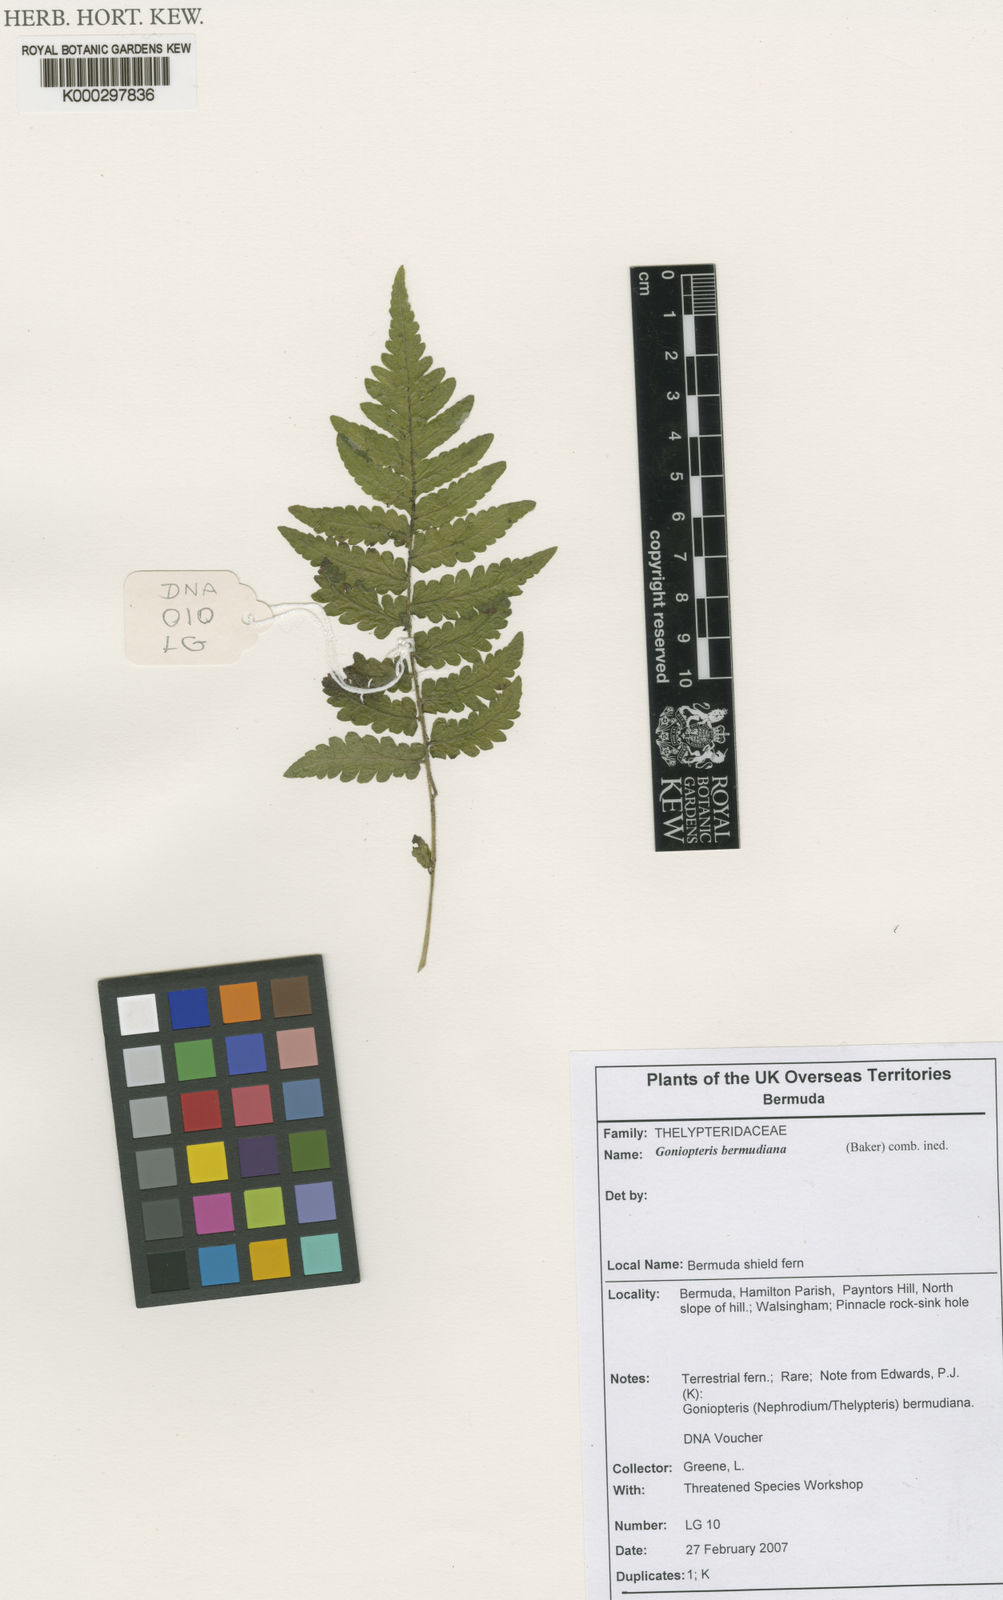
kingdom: Plantae
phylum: Tracheophyta
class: Polypodiopsida
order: Polypodiales
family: Thelypteridaceae
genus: Cyclosorus
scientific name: Cyclosorus
